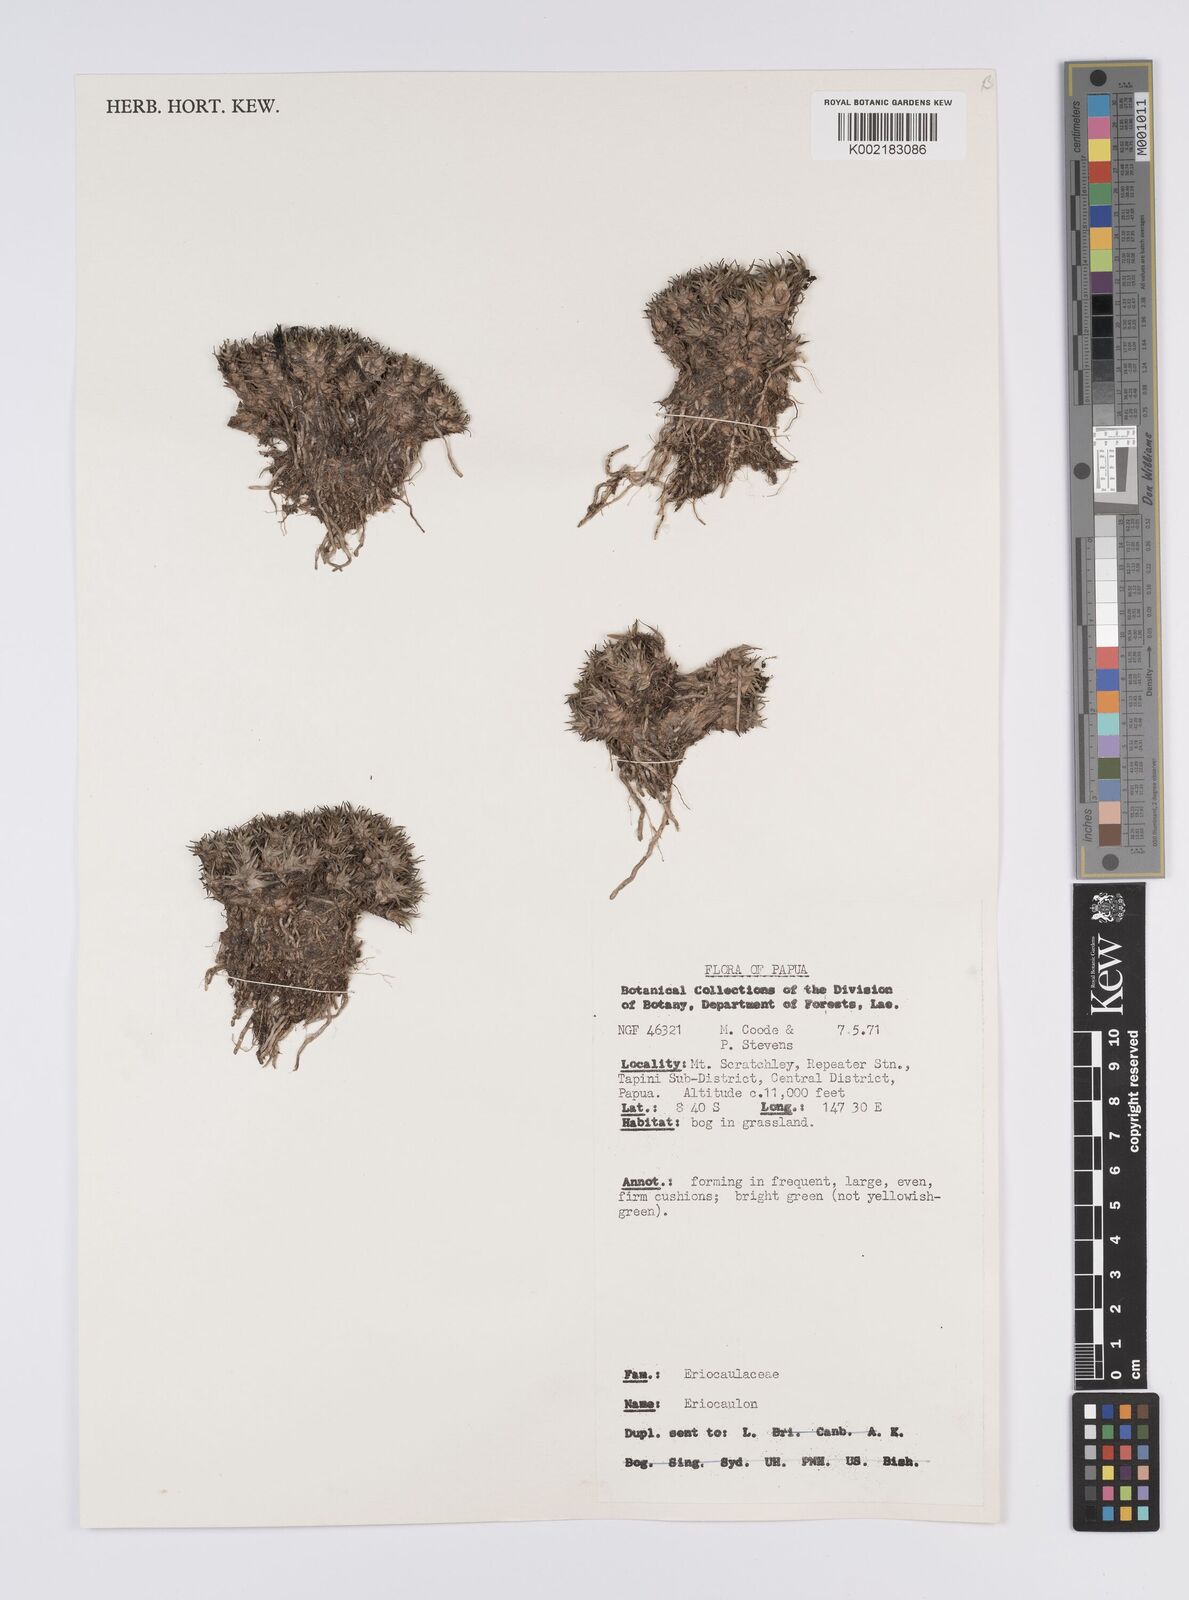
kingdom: Plantae
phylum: Tracheophyta
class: Liliopsida
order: Poales
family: Eriocaulaceae
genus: Eriocaulon
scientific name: Eriocaulon
